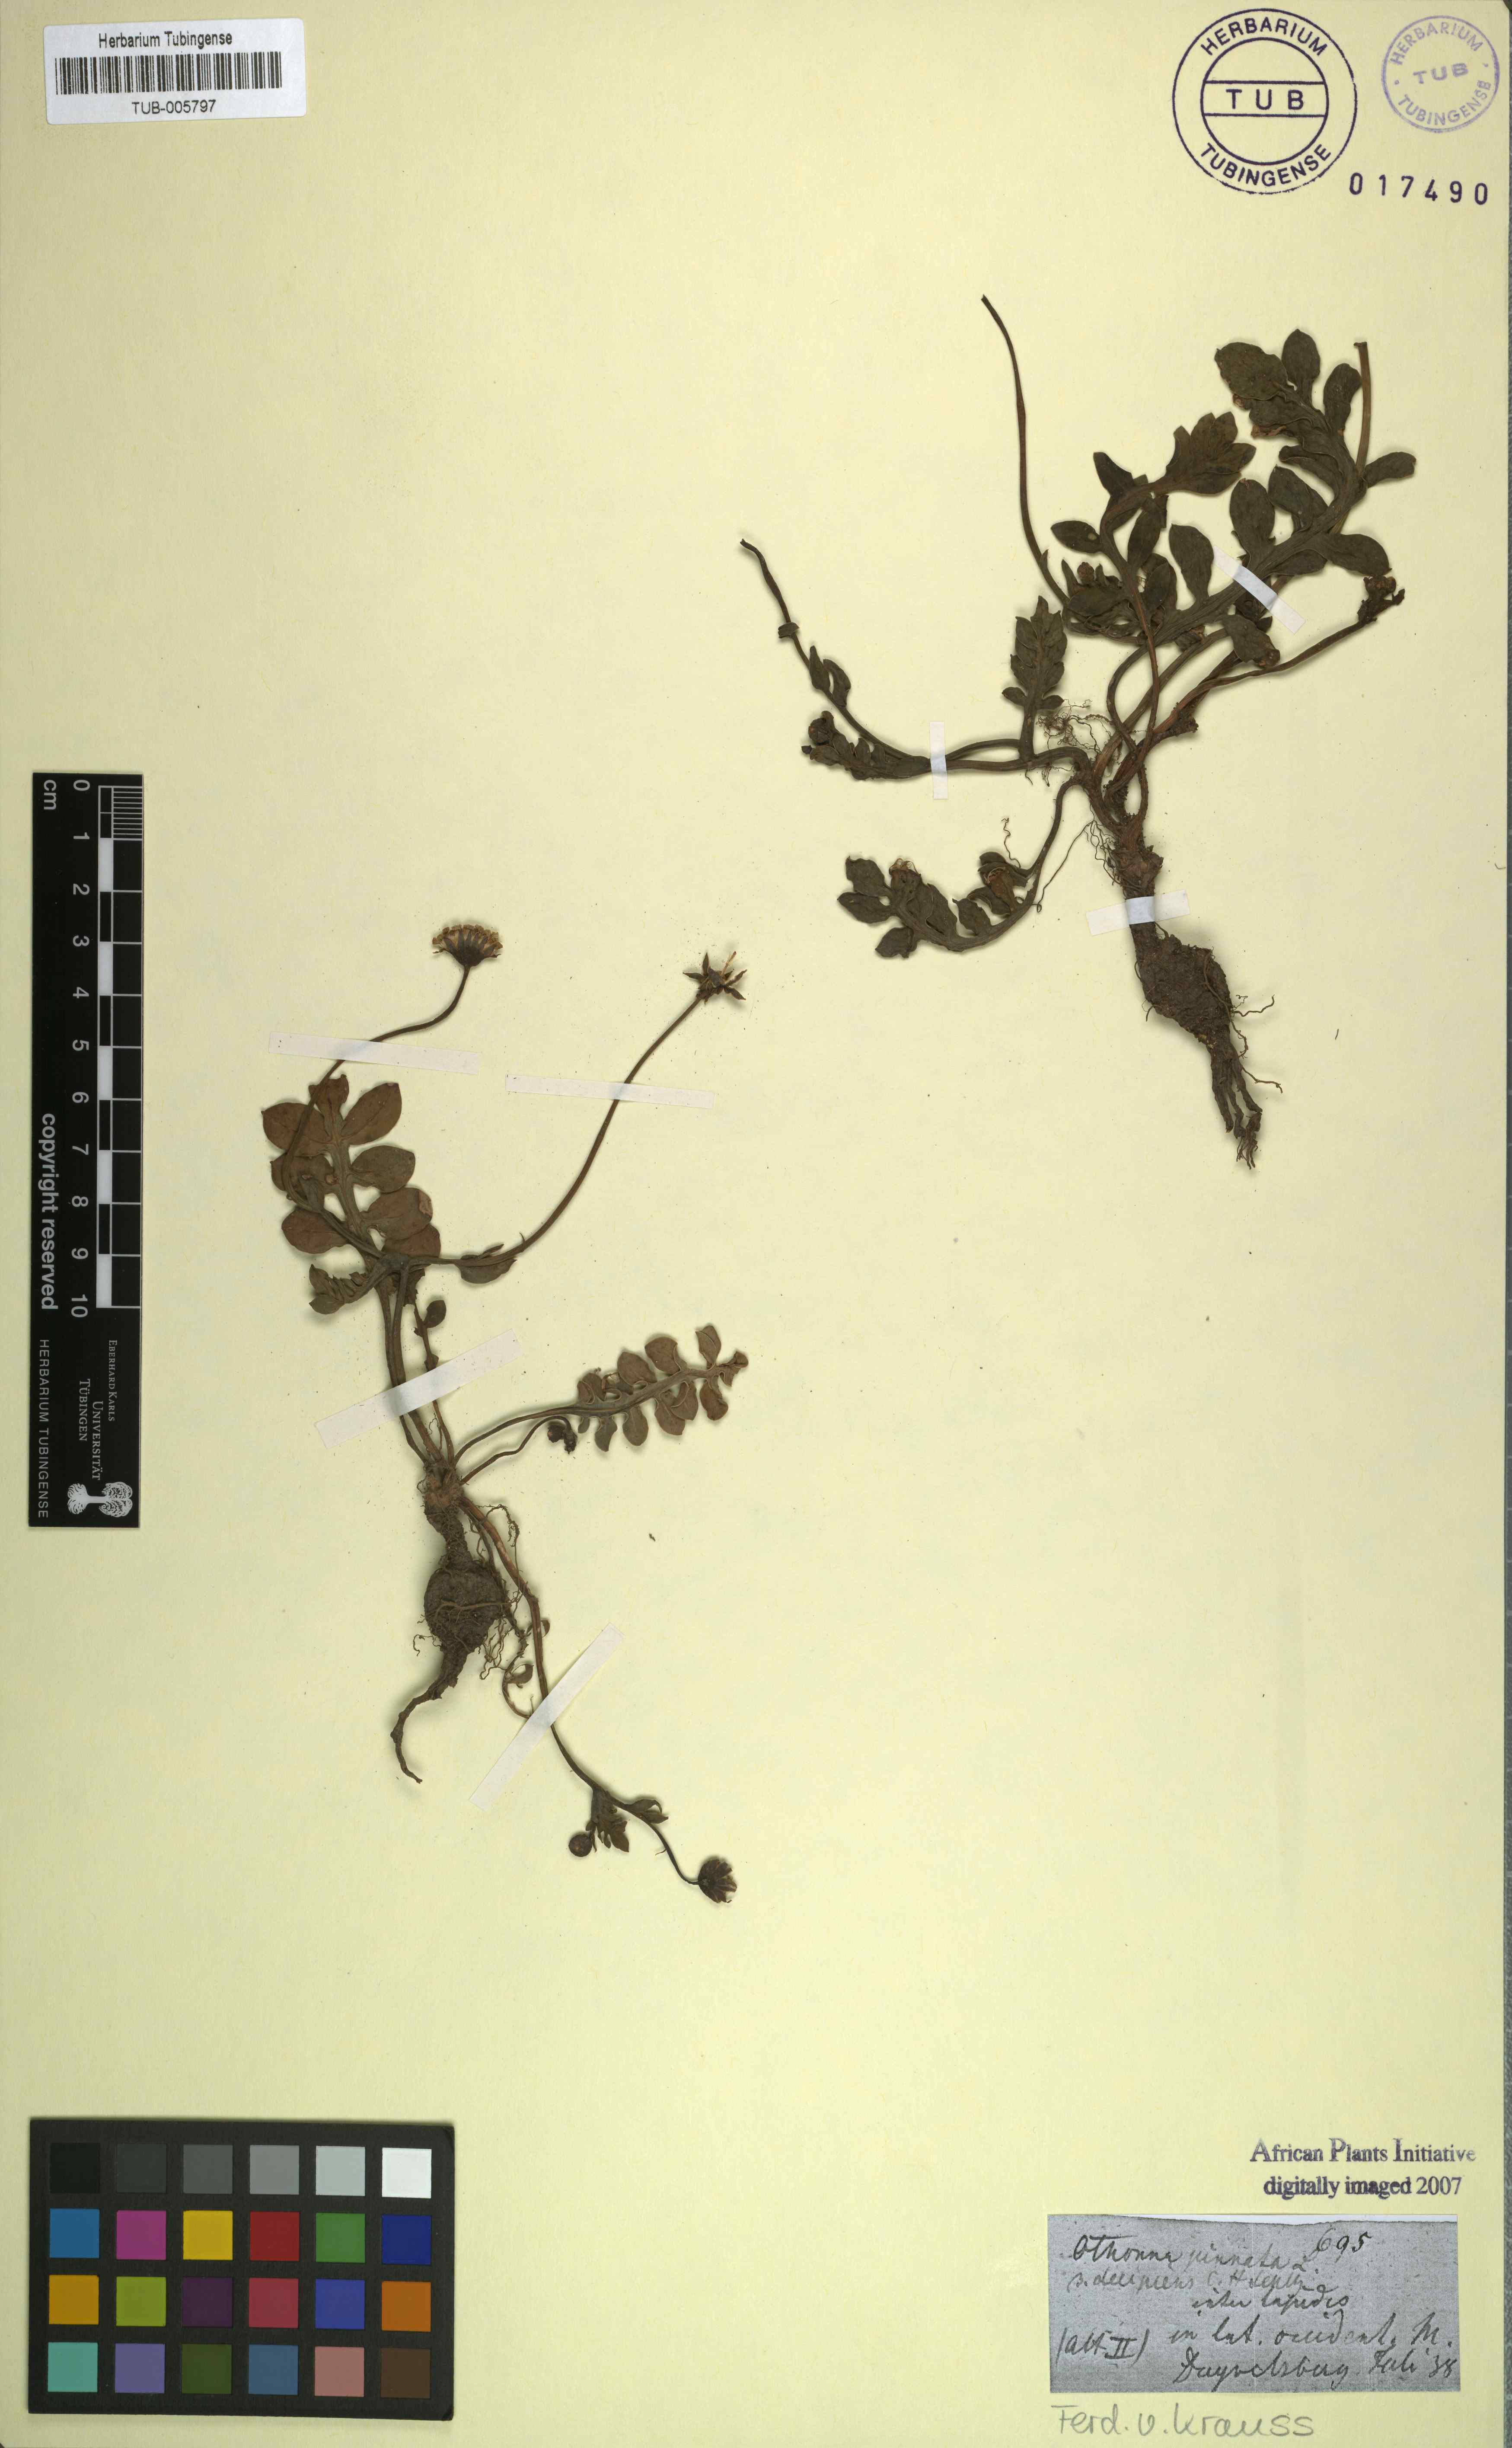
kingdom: Plantae
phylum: Tracheophyta
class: Magnoliopsida
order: Asterales
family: Asteraceae
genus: Othonna
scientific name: Othonna pinnata
